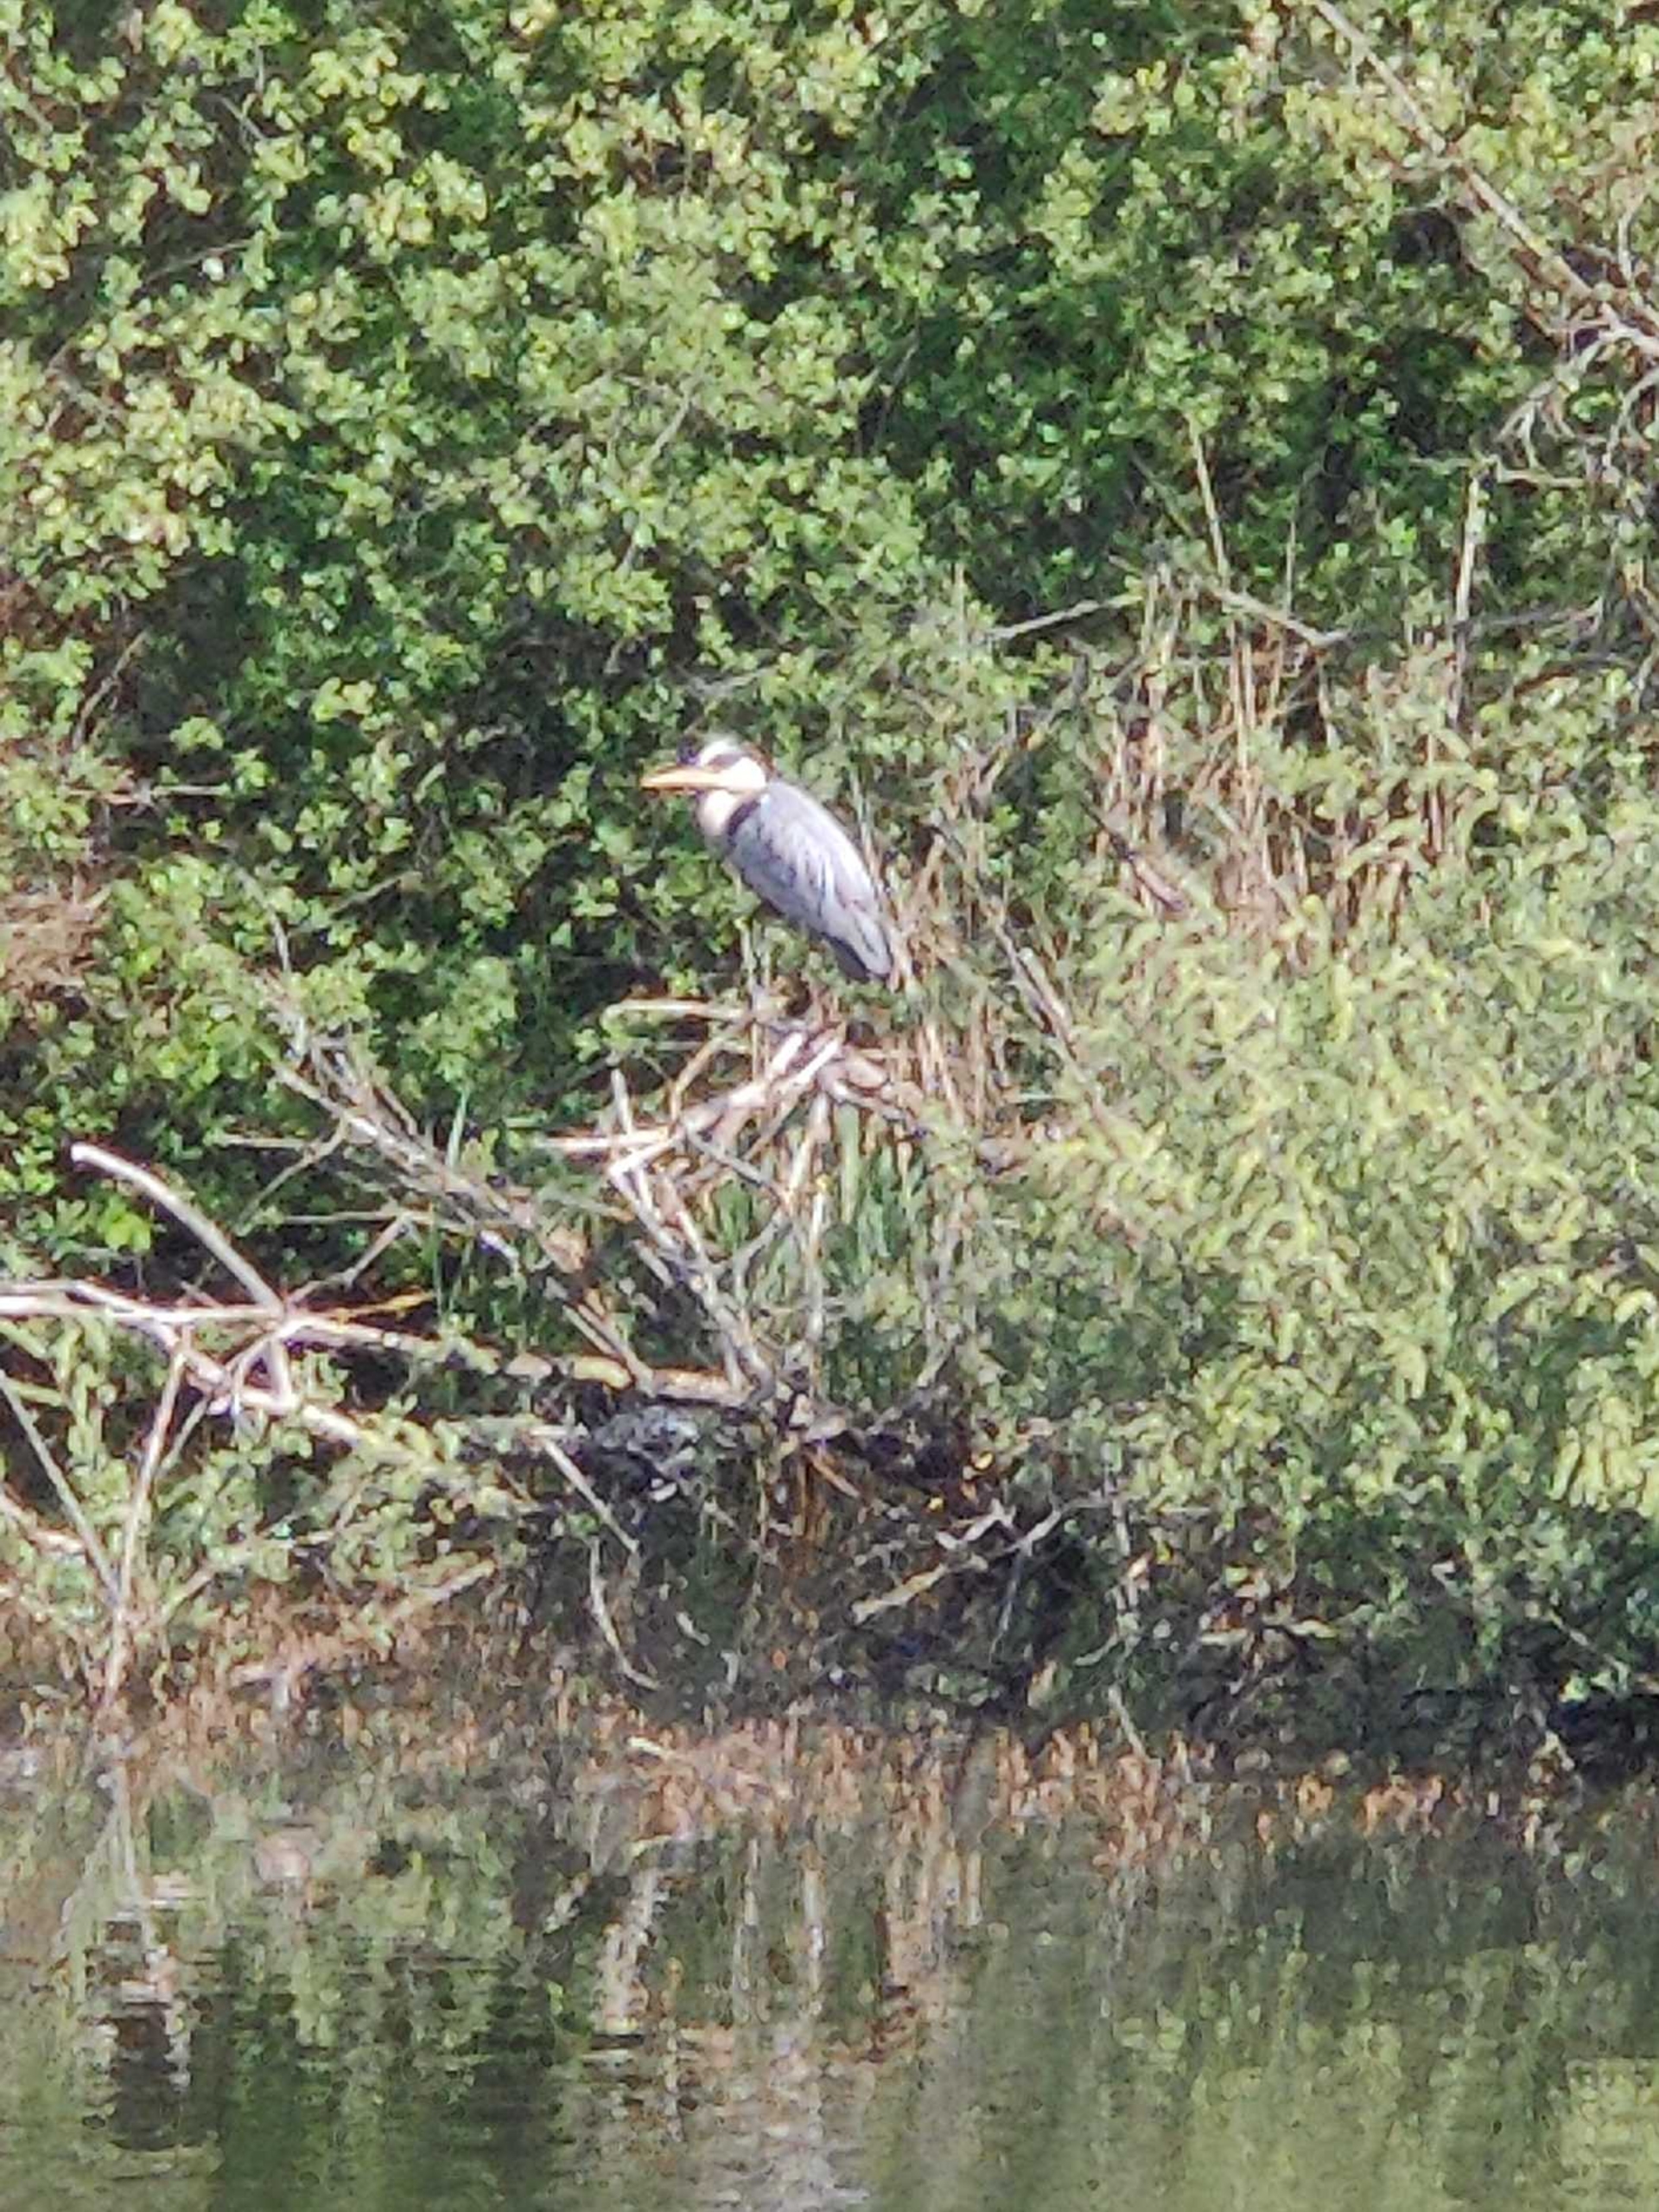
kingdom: Animalia
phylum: Chordata
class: Aves
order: Pelecaniformes
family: Ardeidae
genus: Ardea
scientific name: Ardea cinerea
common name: Fiskehejre
